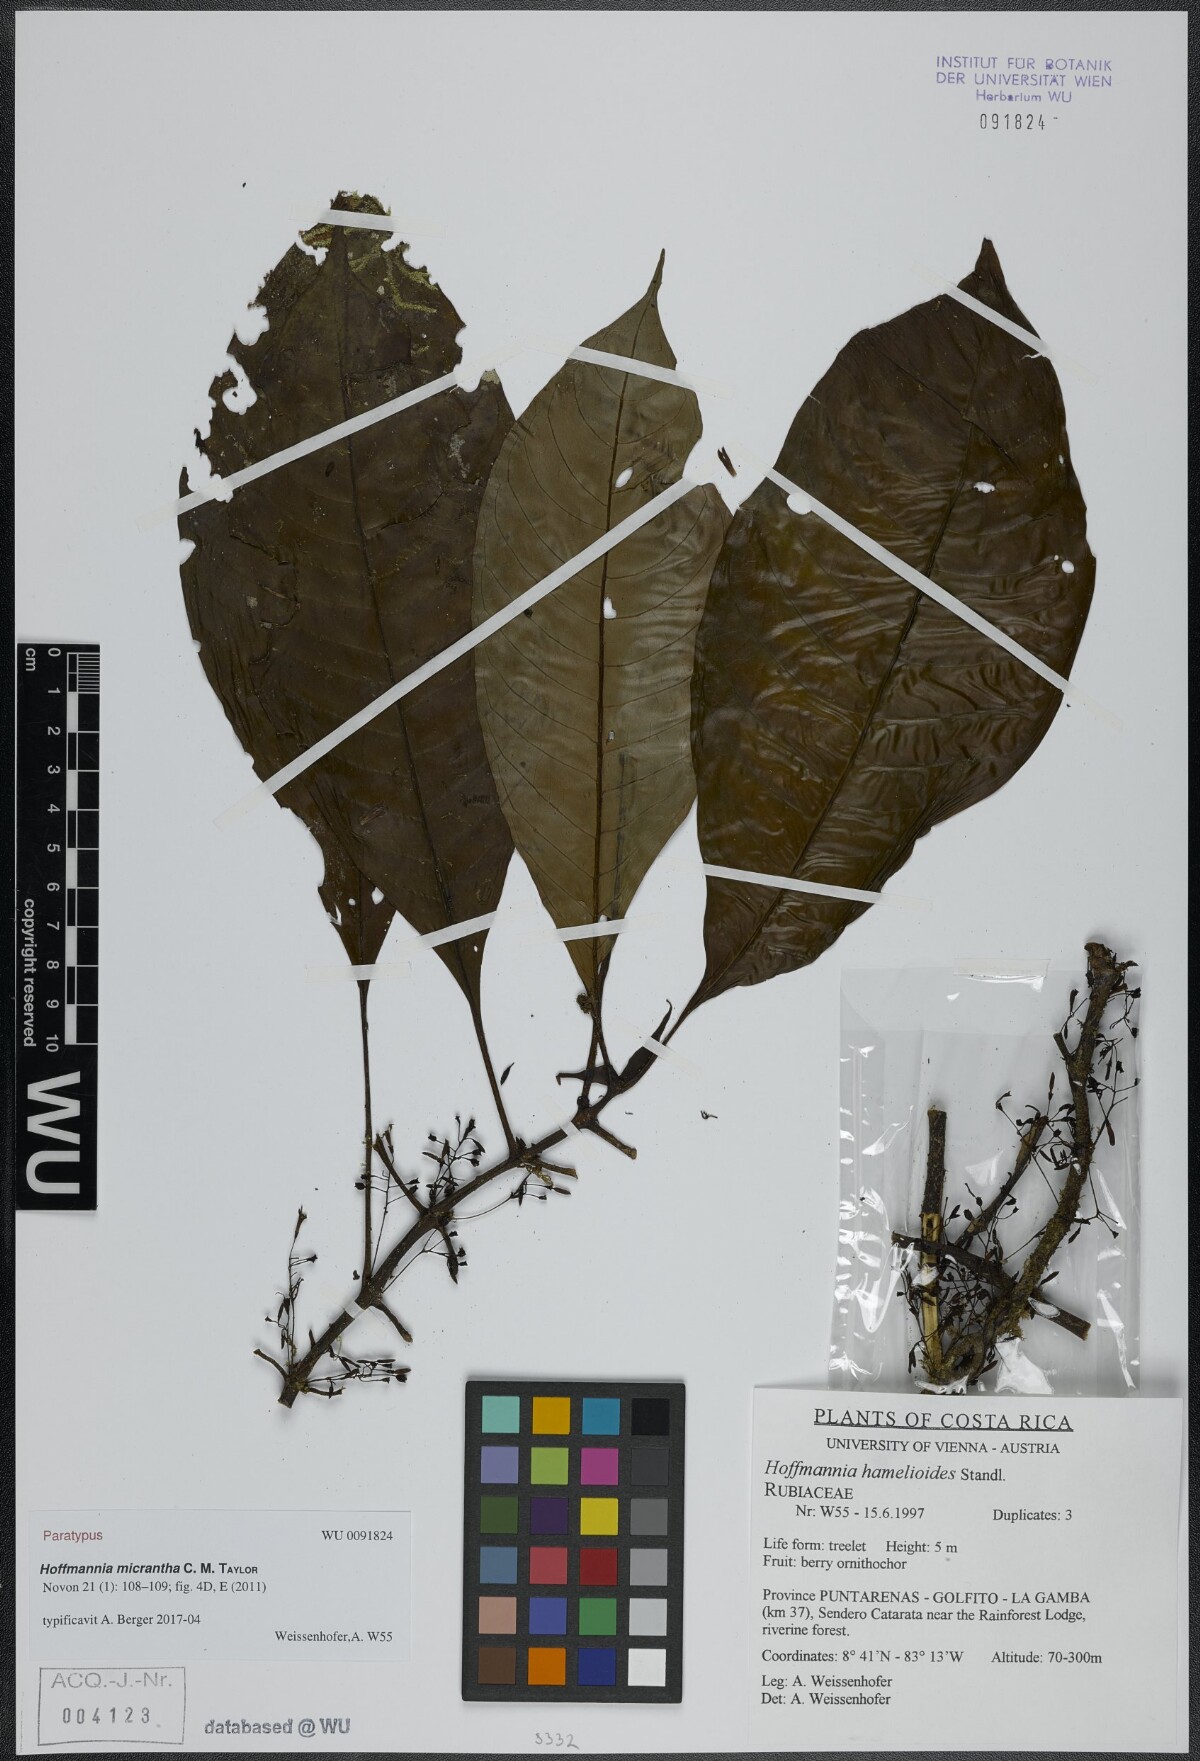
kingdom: Plantae
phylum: Tracheophyta
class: Magnoliopsida
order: Gentianales
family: Rubiaceae
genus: Hoffmannia
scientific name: Hoffmannia micrantha
